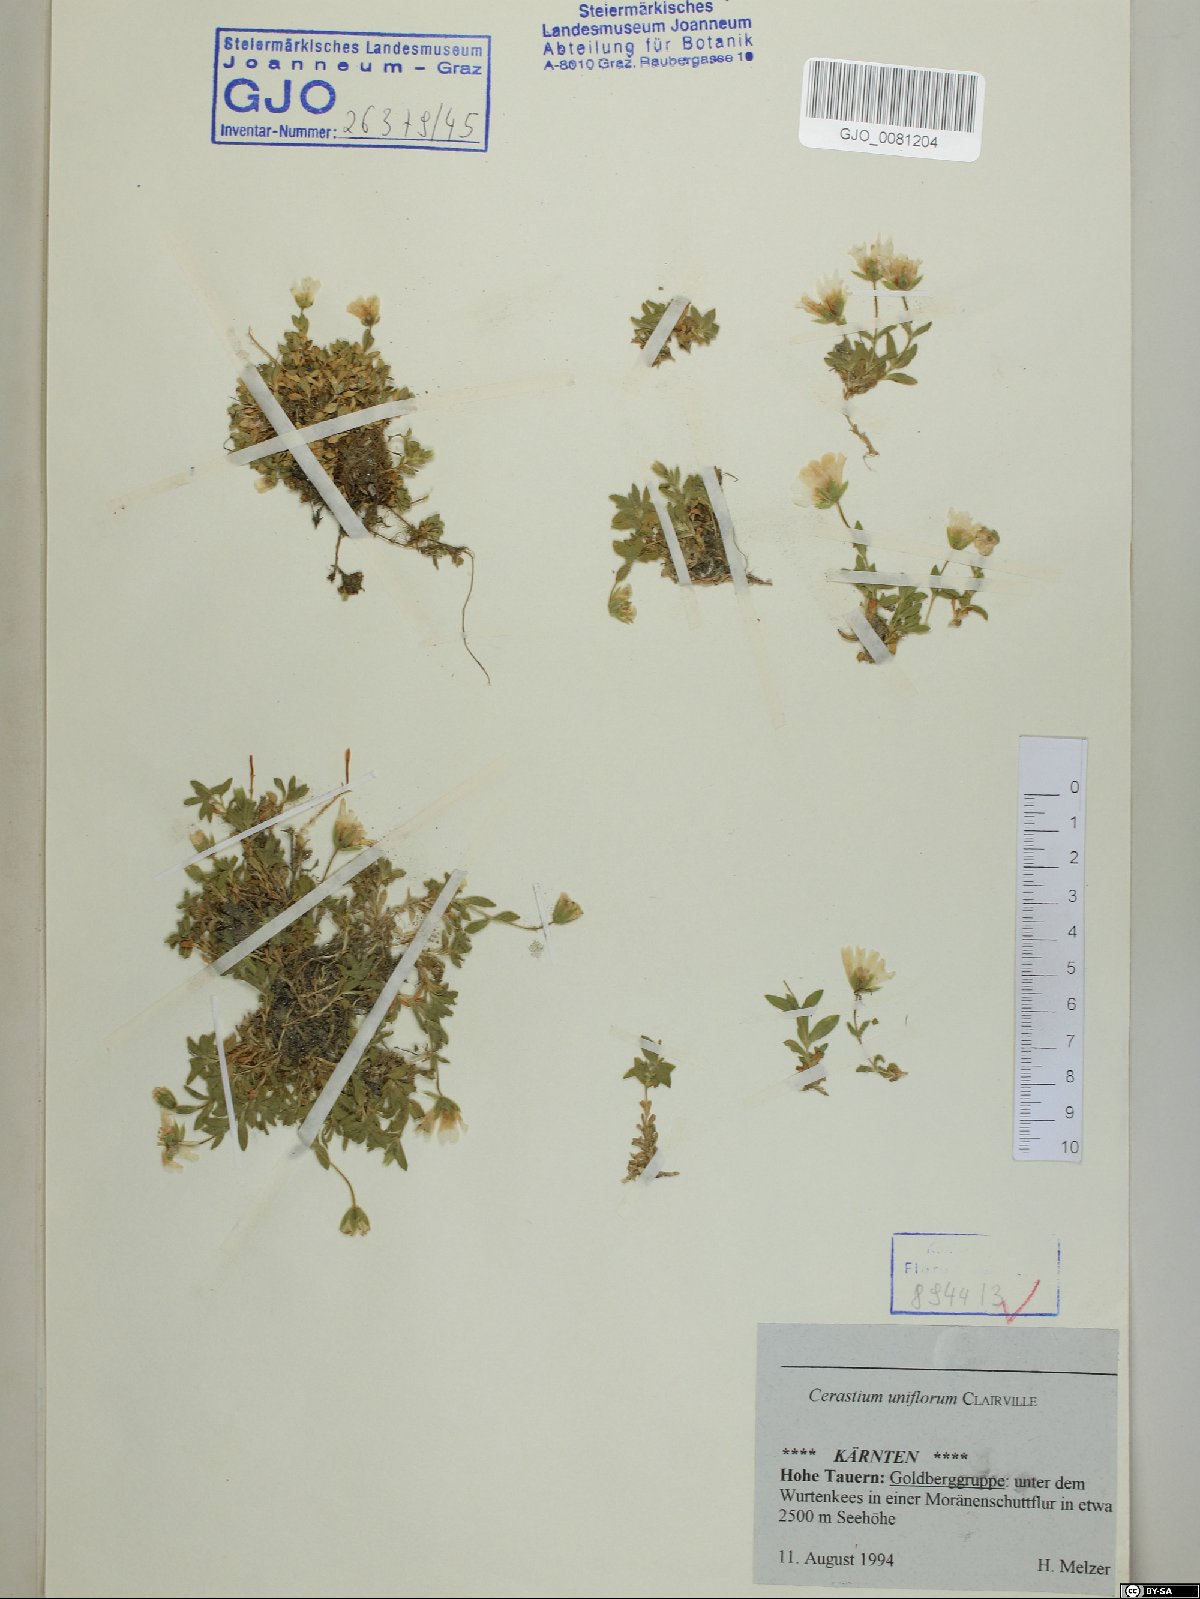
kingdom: Plantae
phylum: Tracheophyta
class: Magnoliopsida
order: Caryophyllales
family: Caryophyllaceae
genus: Cerastium
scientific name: Cerastium uniflorum
